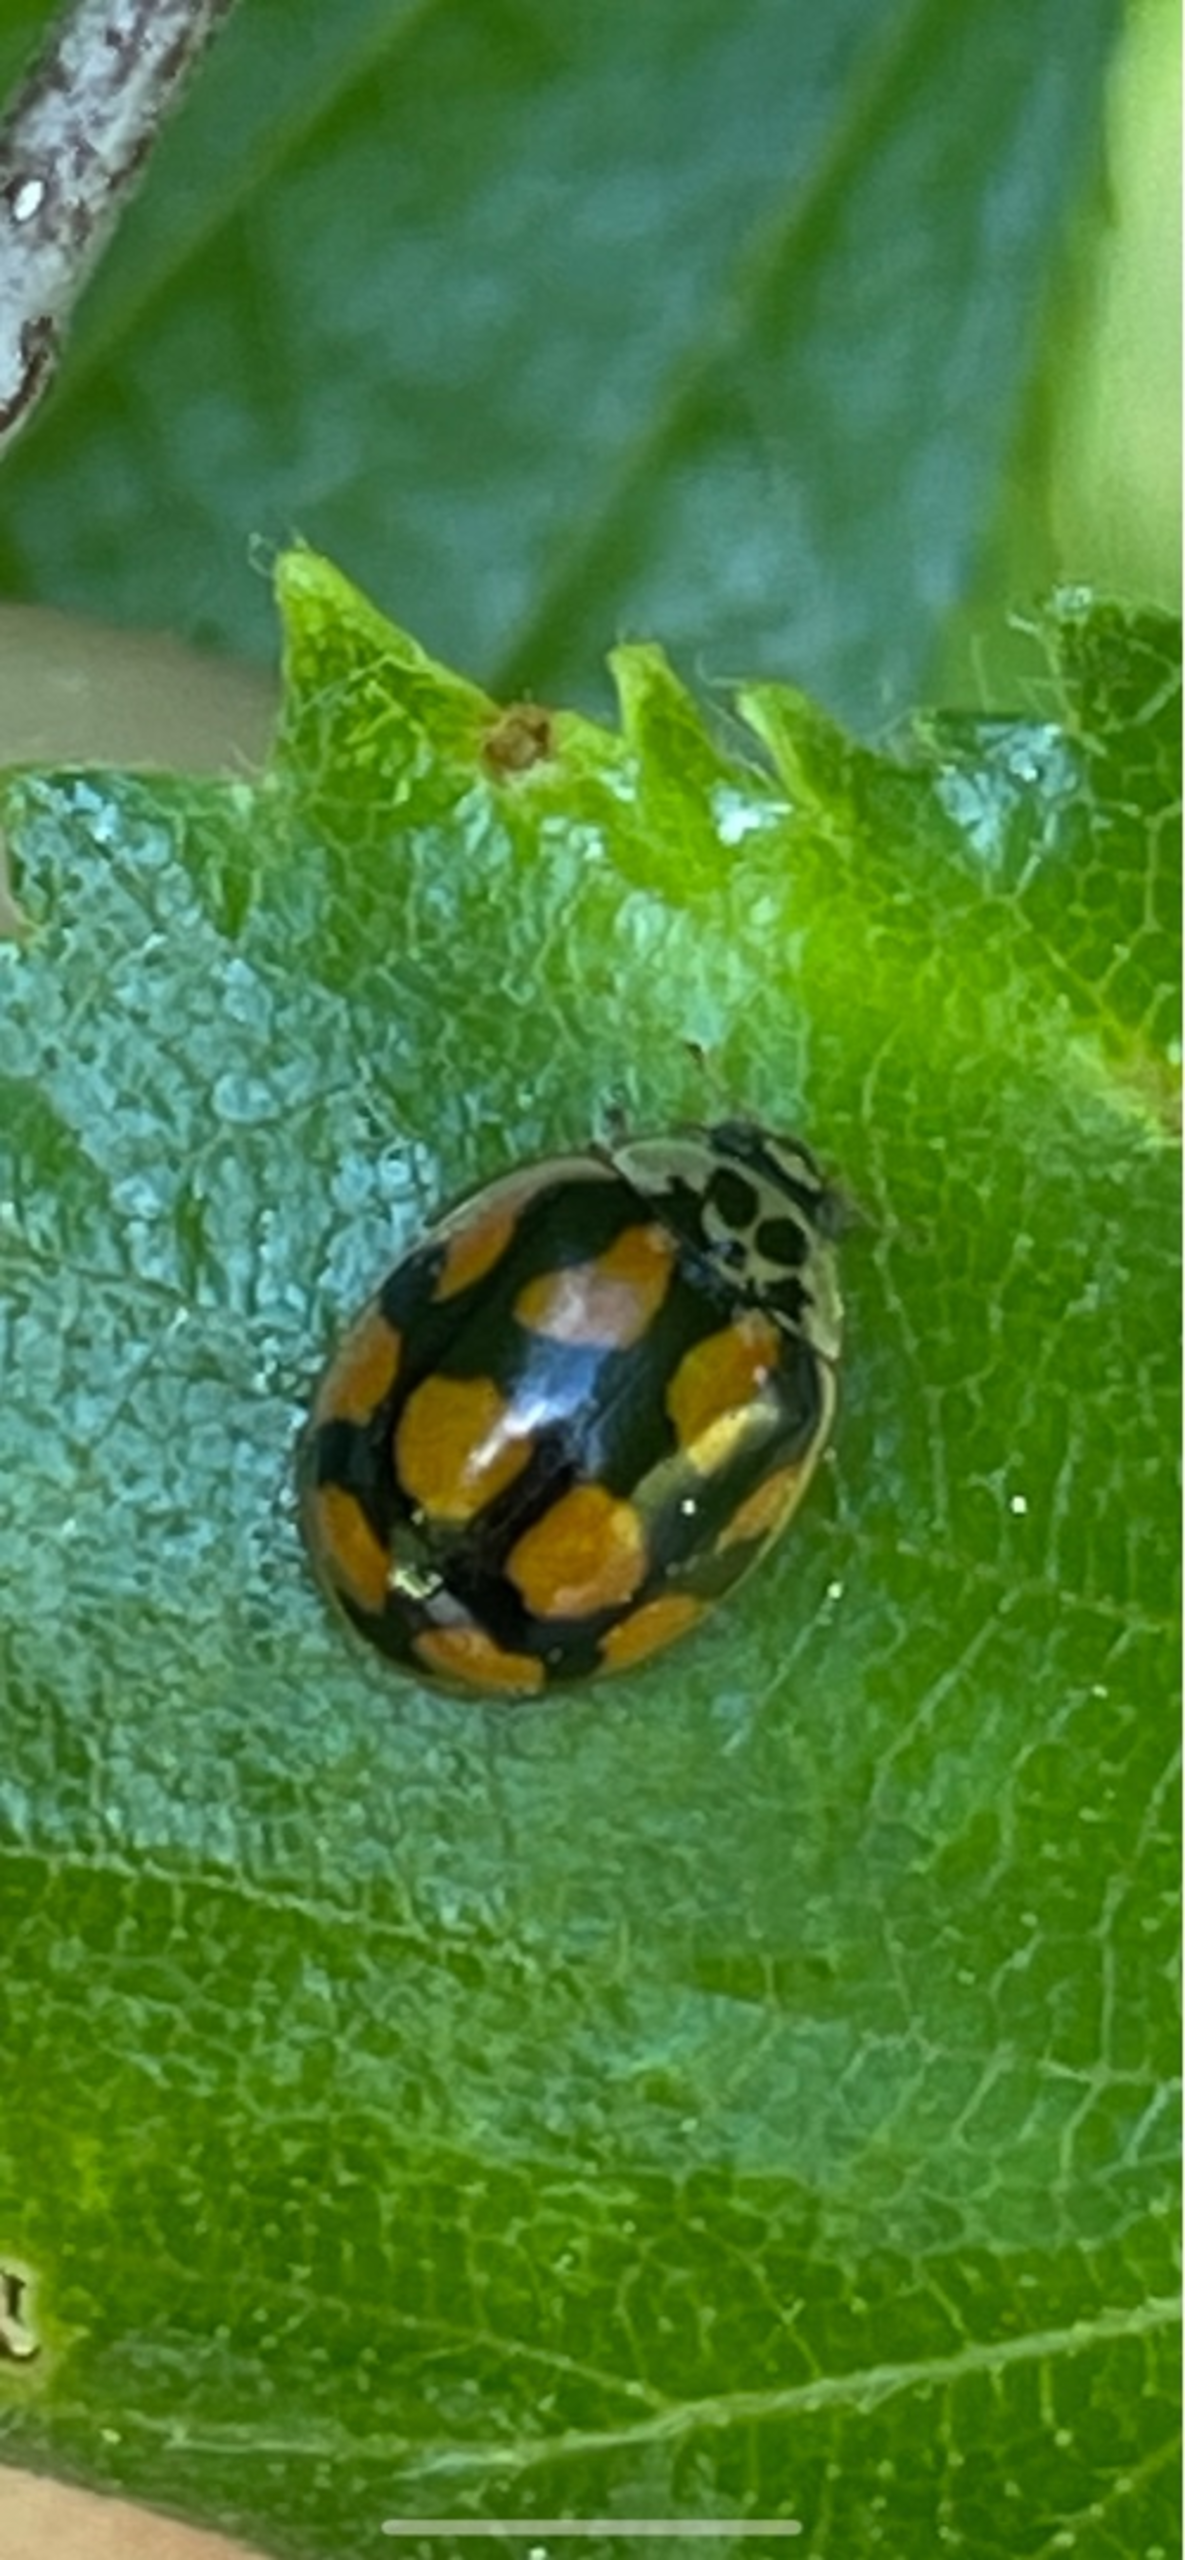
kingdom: Animalia
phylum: Arthropoda
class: Insecta
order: Coleoptera
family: Coccinellidae
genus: Harmonia
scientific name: Harmonia axyridis
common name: Harlekinmariehøne
